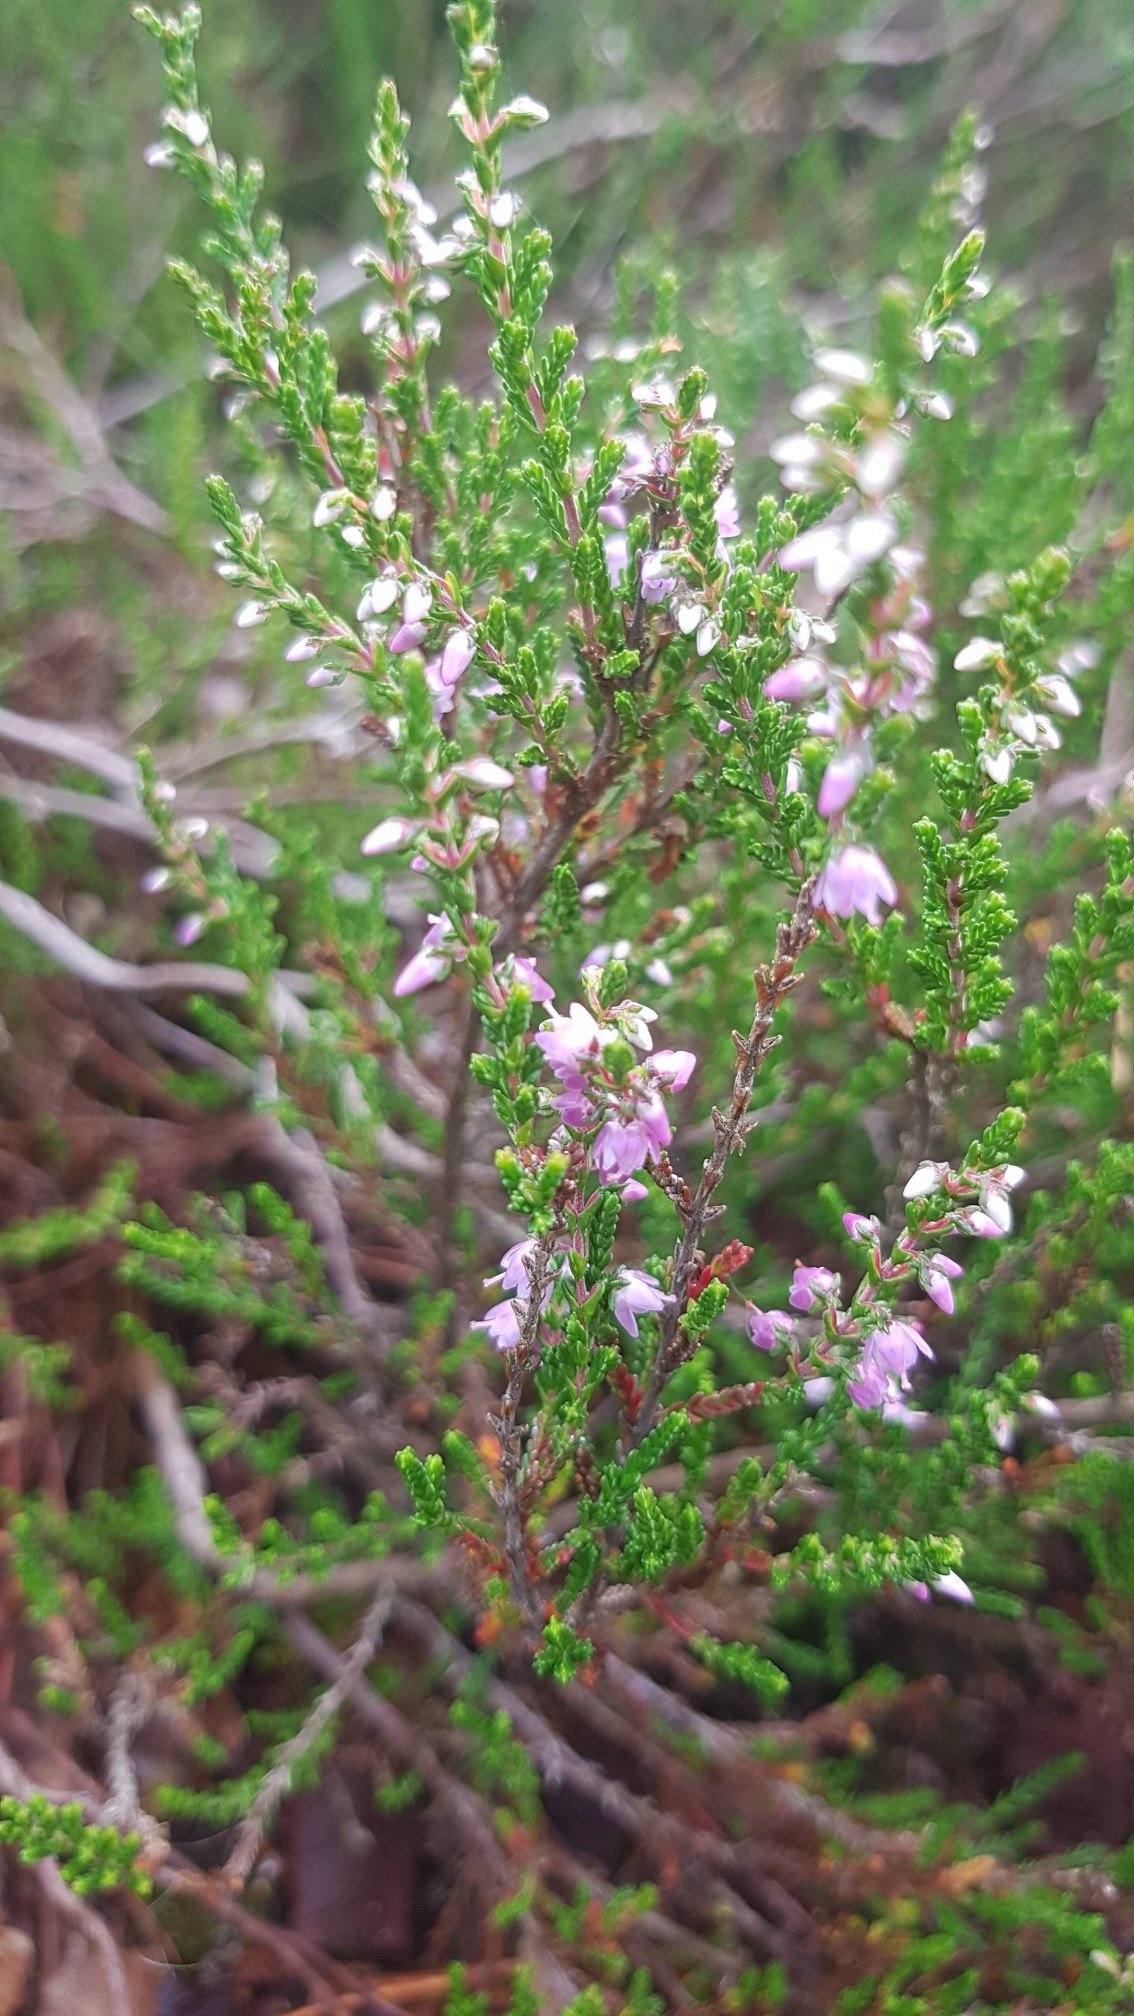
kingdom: Plantae
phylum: Tracheophyta
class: Magnoliopsida
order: Ericales
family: Ericaceae
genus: Calluna
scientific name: Calluna vulgaris
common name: Hedelyng
